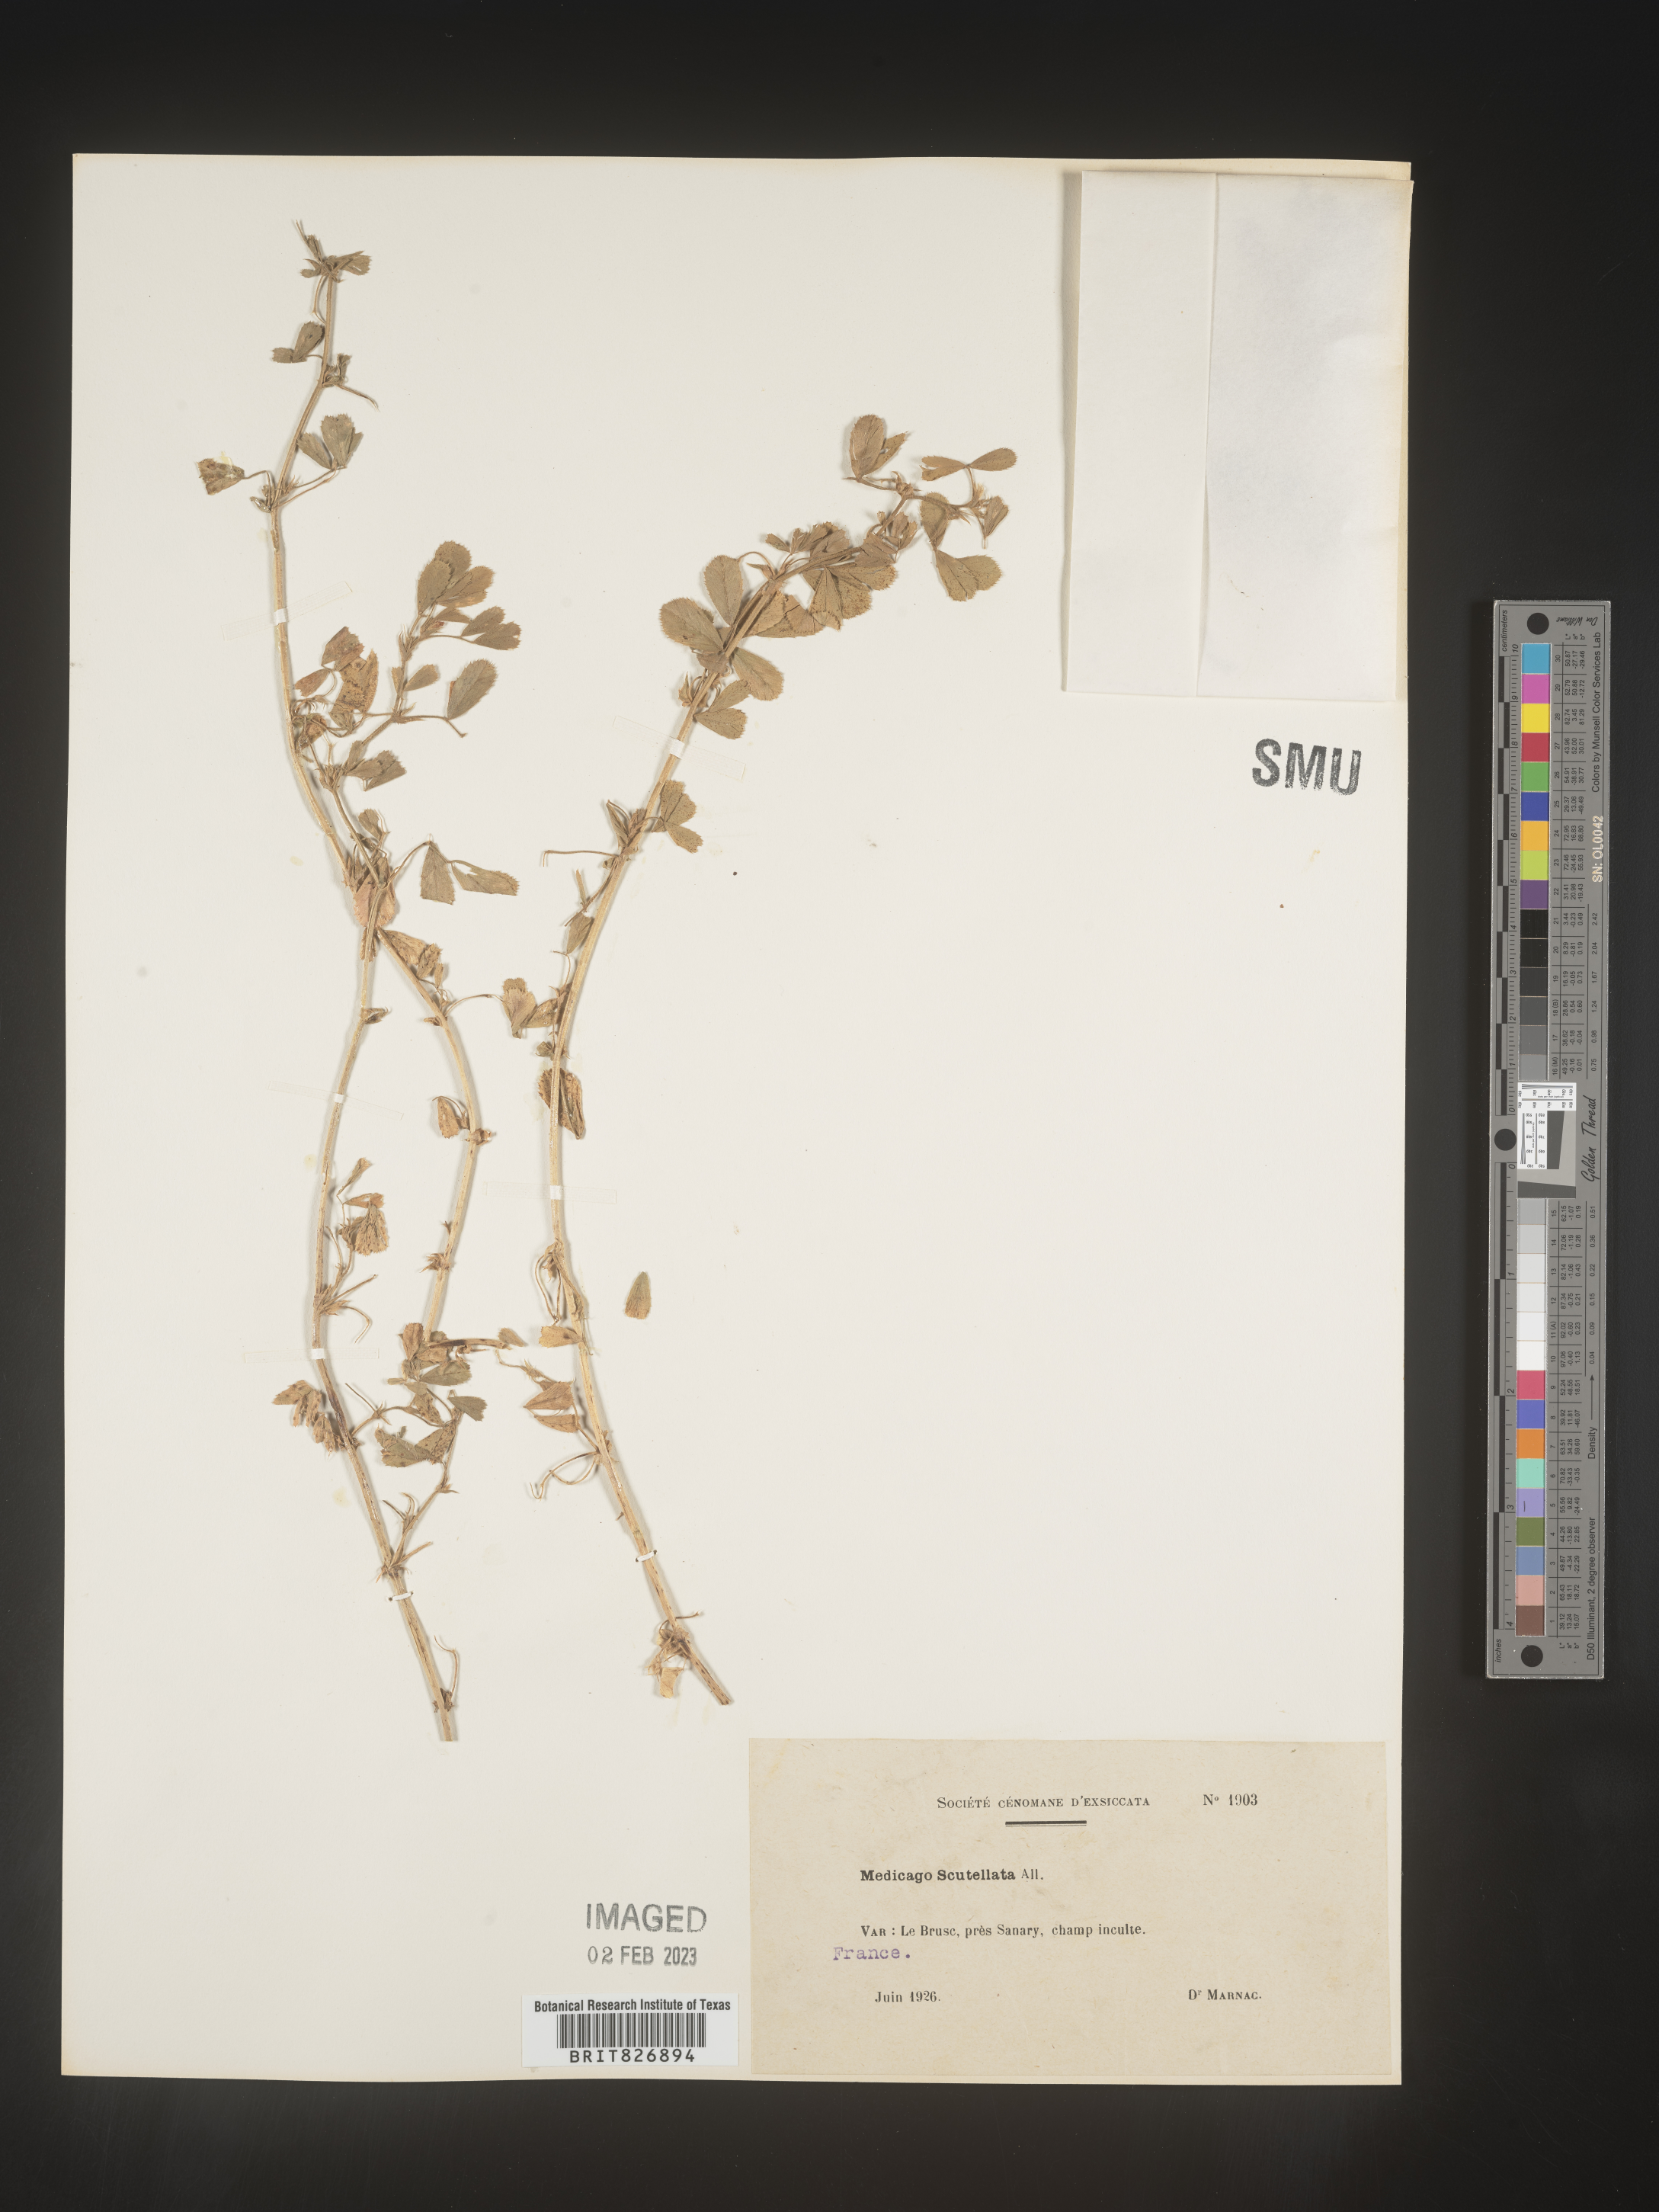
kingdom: Plantae
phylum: Tracheophyta
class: Magnoliopsida
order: Fabales
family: Fabaceae
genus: Medicago
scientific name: Medicago
